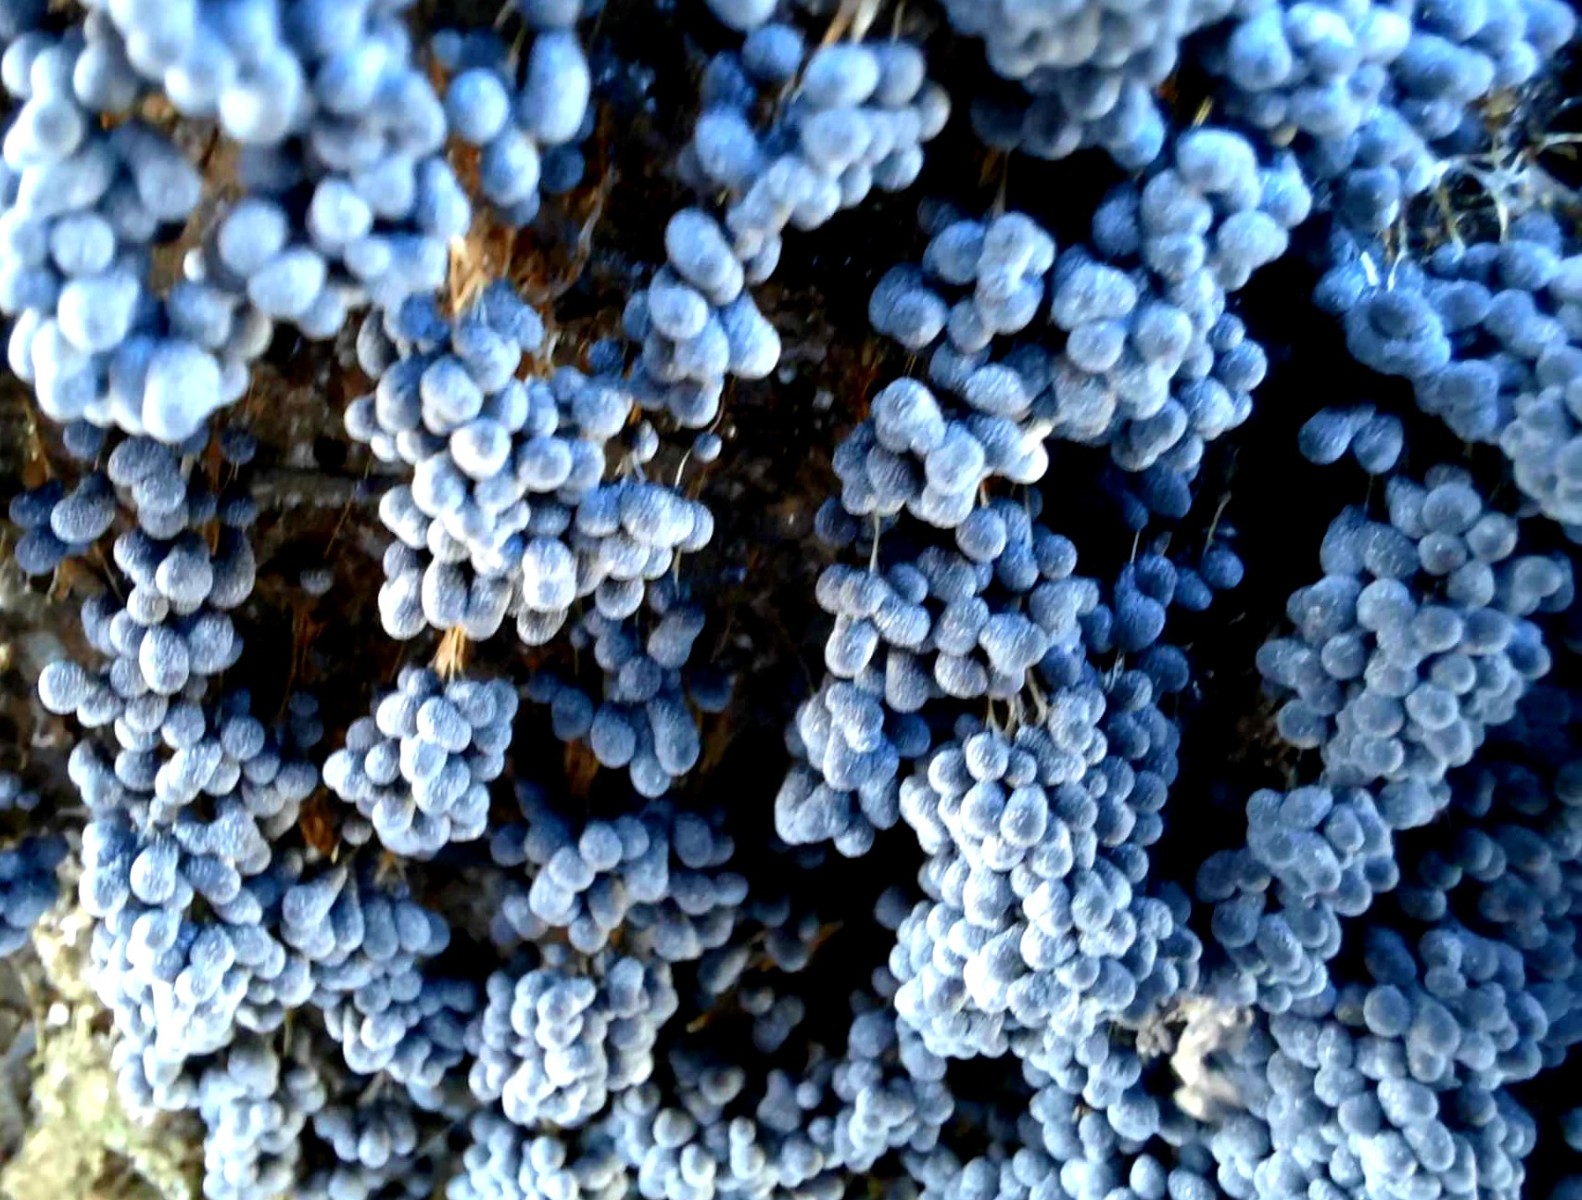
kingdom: Protozoa
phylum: Mycetozoa
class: Myxomycetes
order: Physarales
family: Physaraceae
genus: Badhamia
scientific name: Badhamia utricularis
